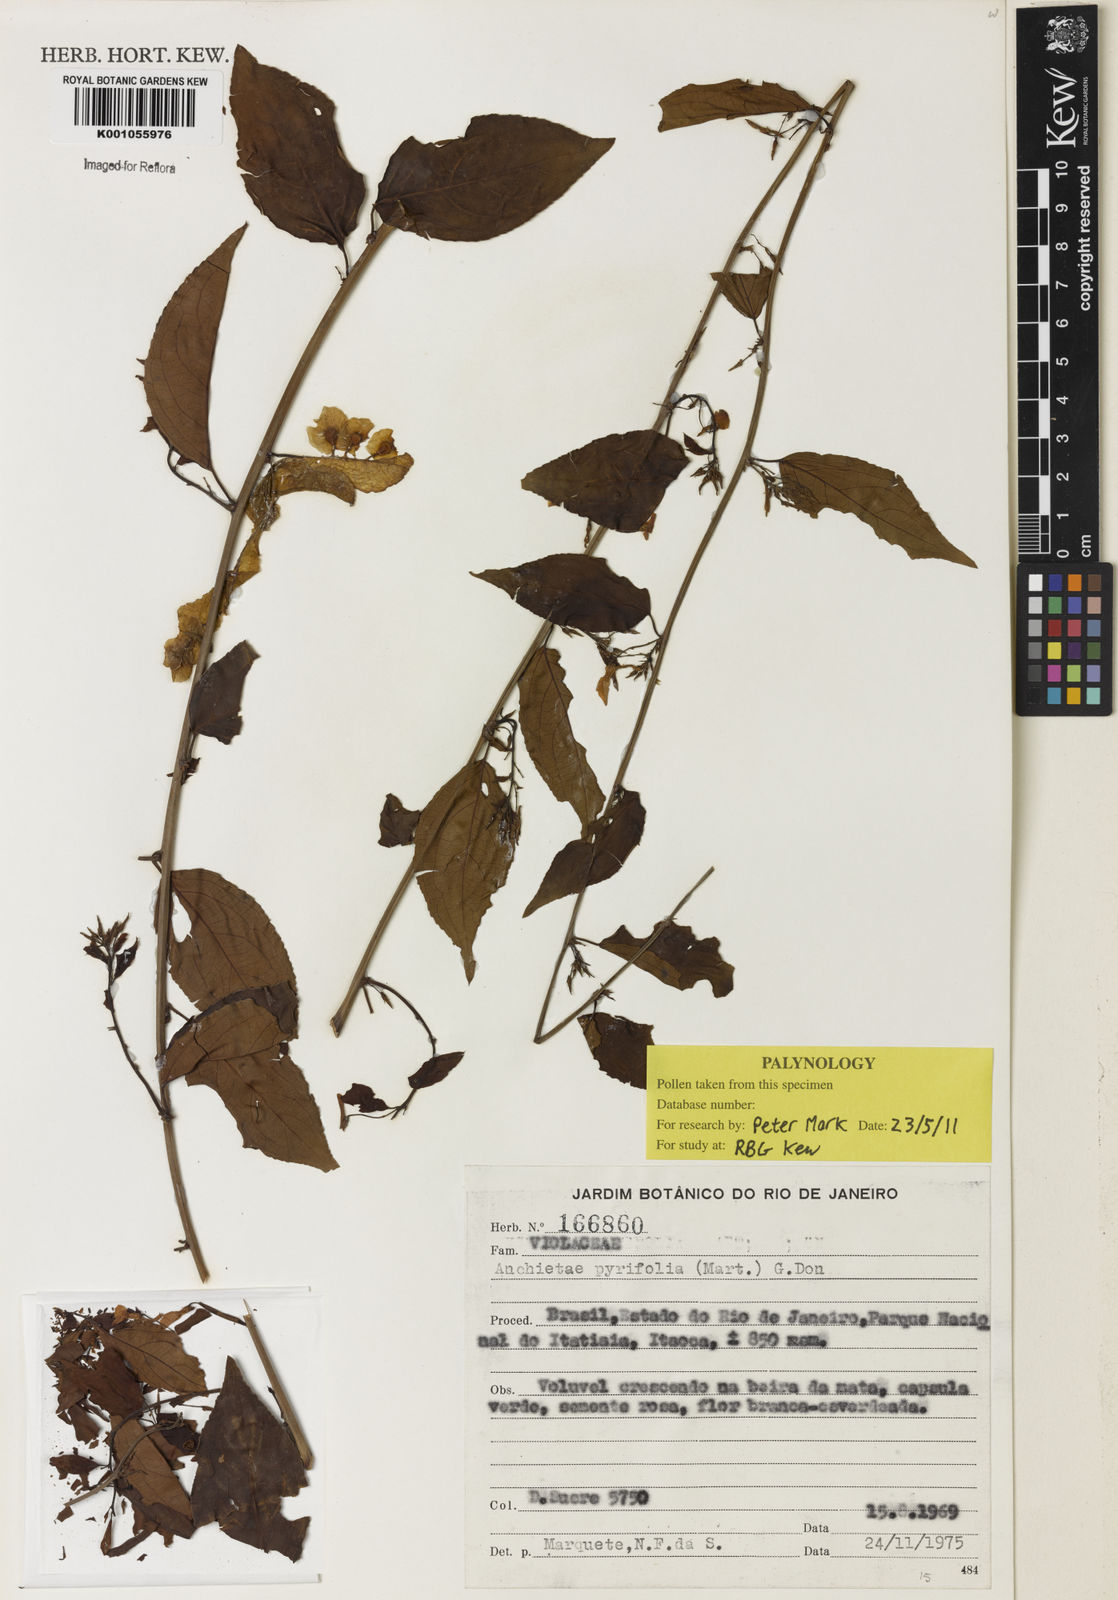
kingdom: Plantae
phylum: Tracheophyta
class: Magnoliopsida
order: Malpighiales
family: Violaceae
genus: Anchietea
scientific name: Anchietea pyrifolia
